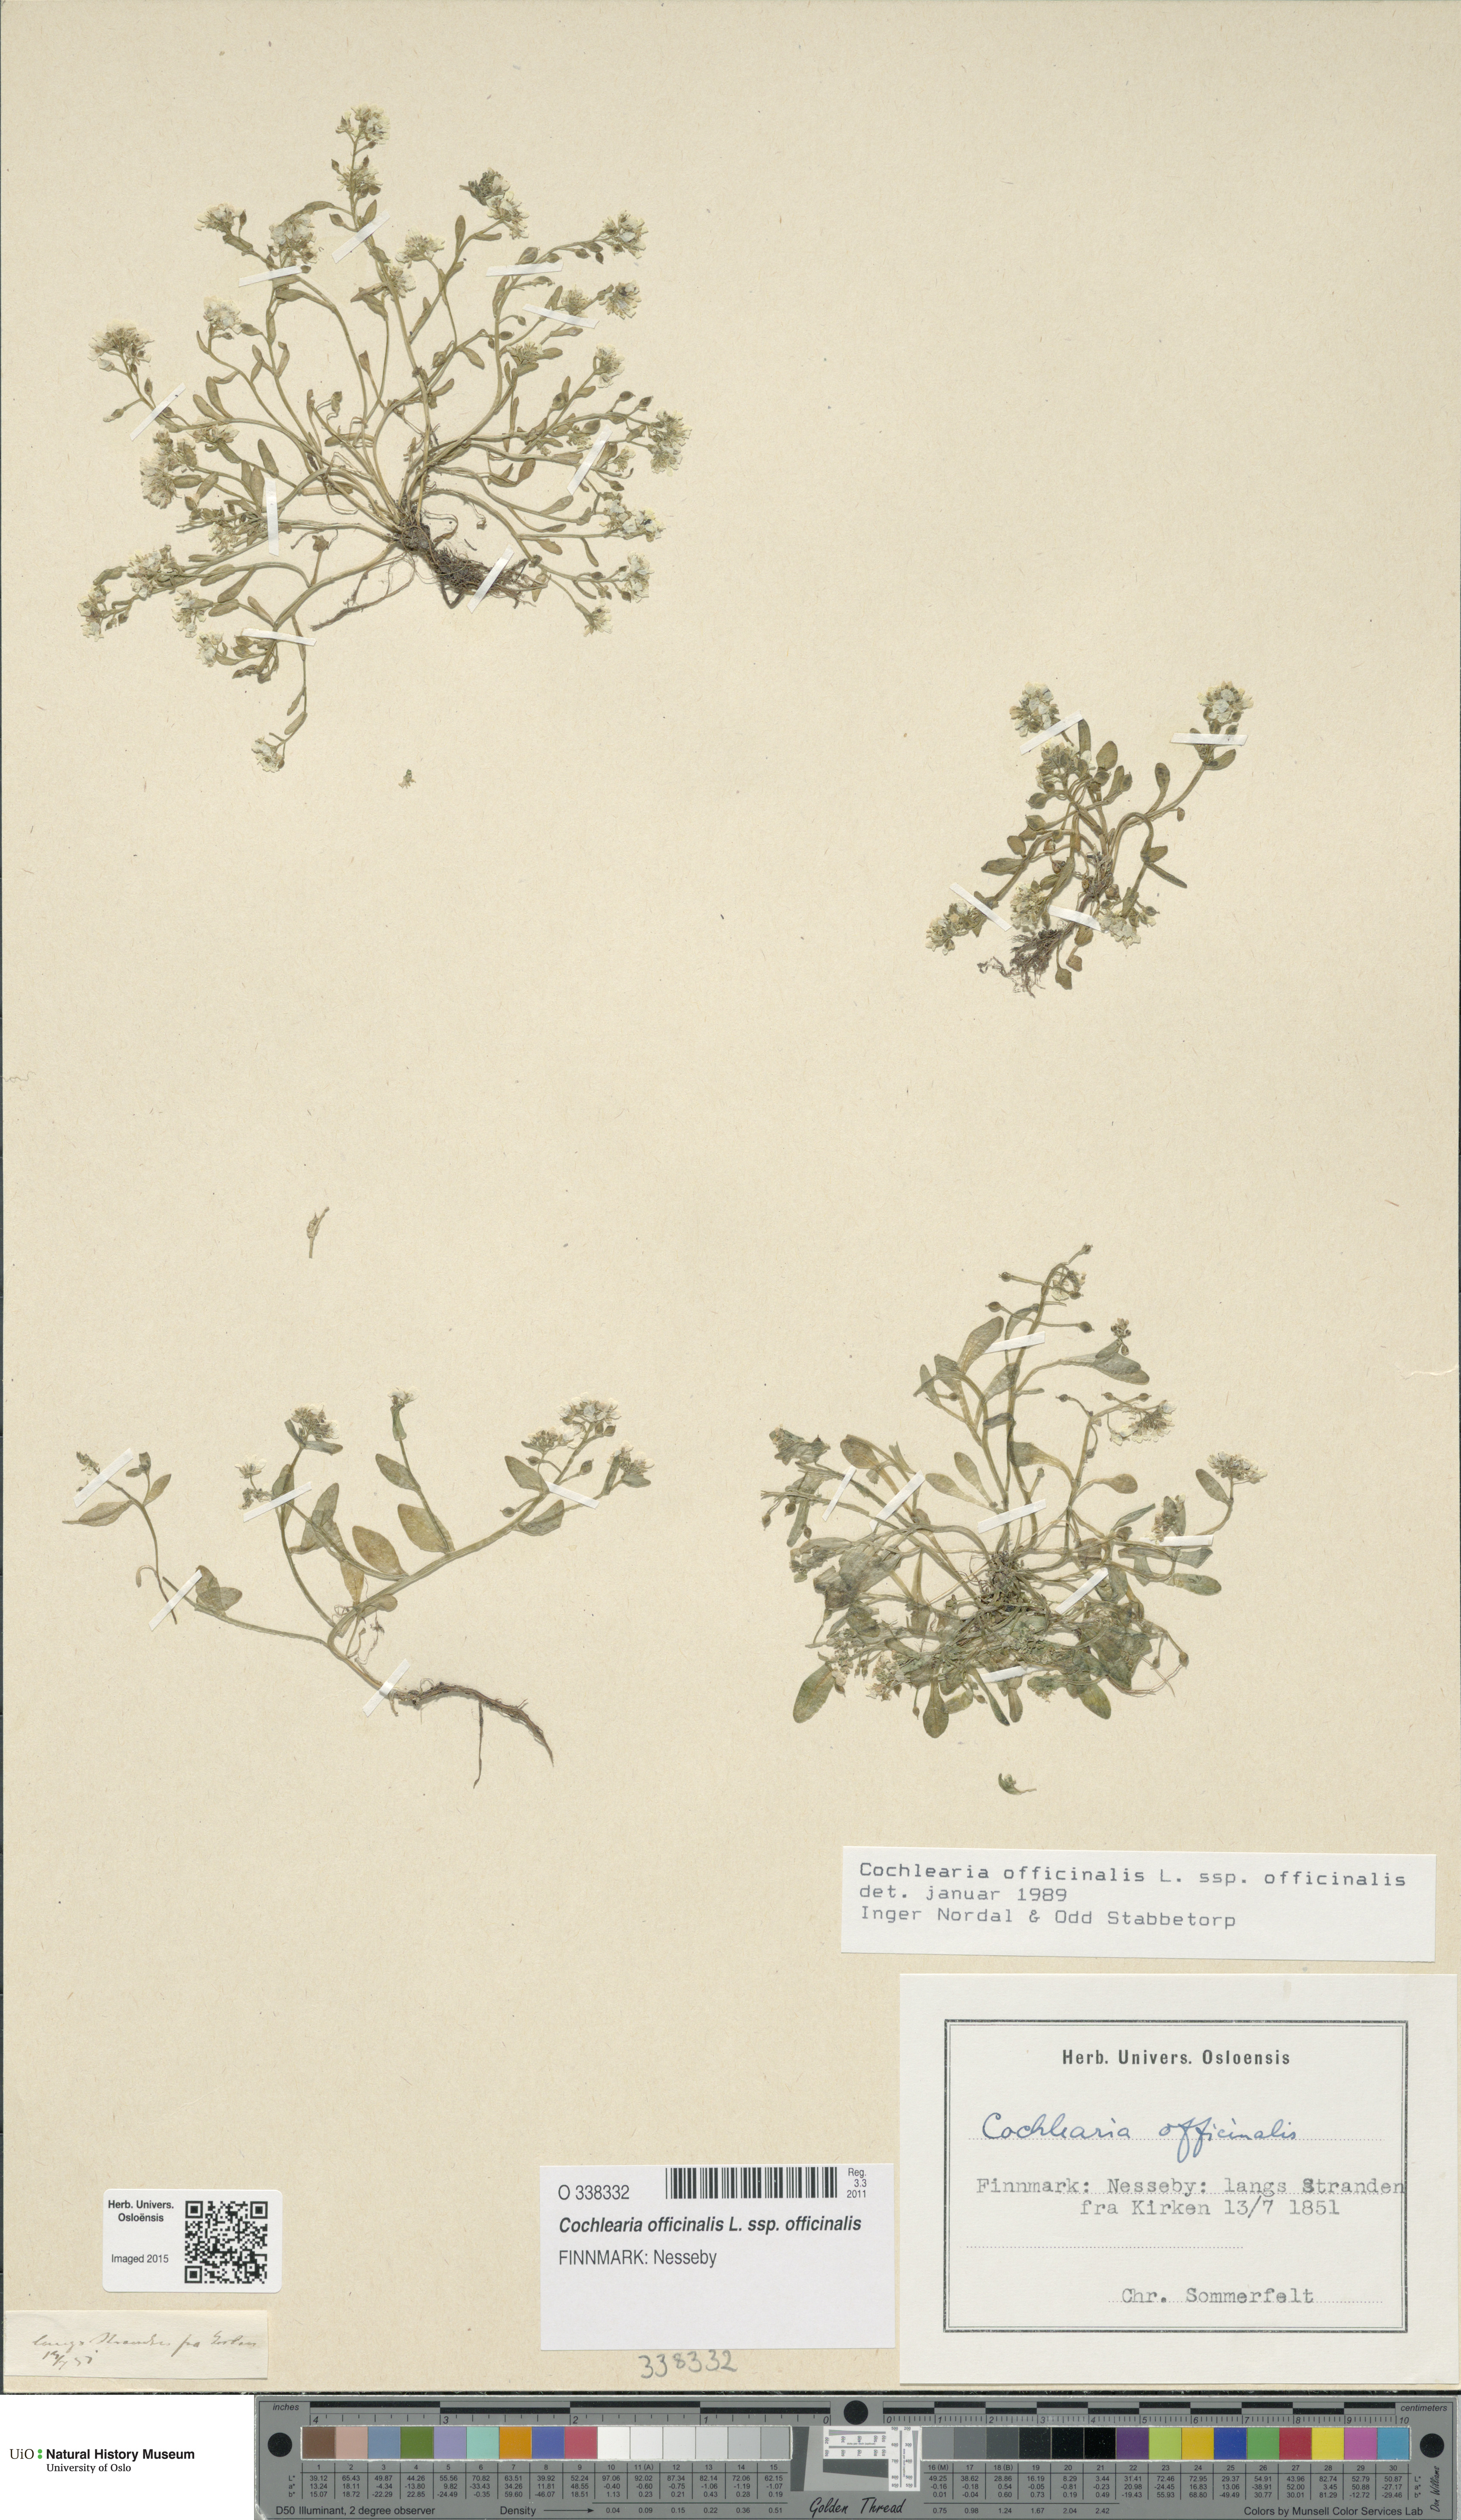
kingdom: Plantae
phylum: Tracheophyta
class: Magnoliopsida
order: Brassicales
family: Brassicaceae
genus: Cochlearia
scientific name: Cochlearia officinalis
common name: Scurvy-grass
